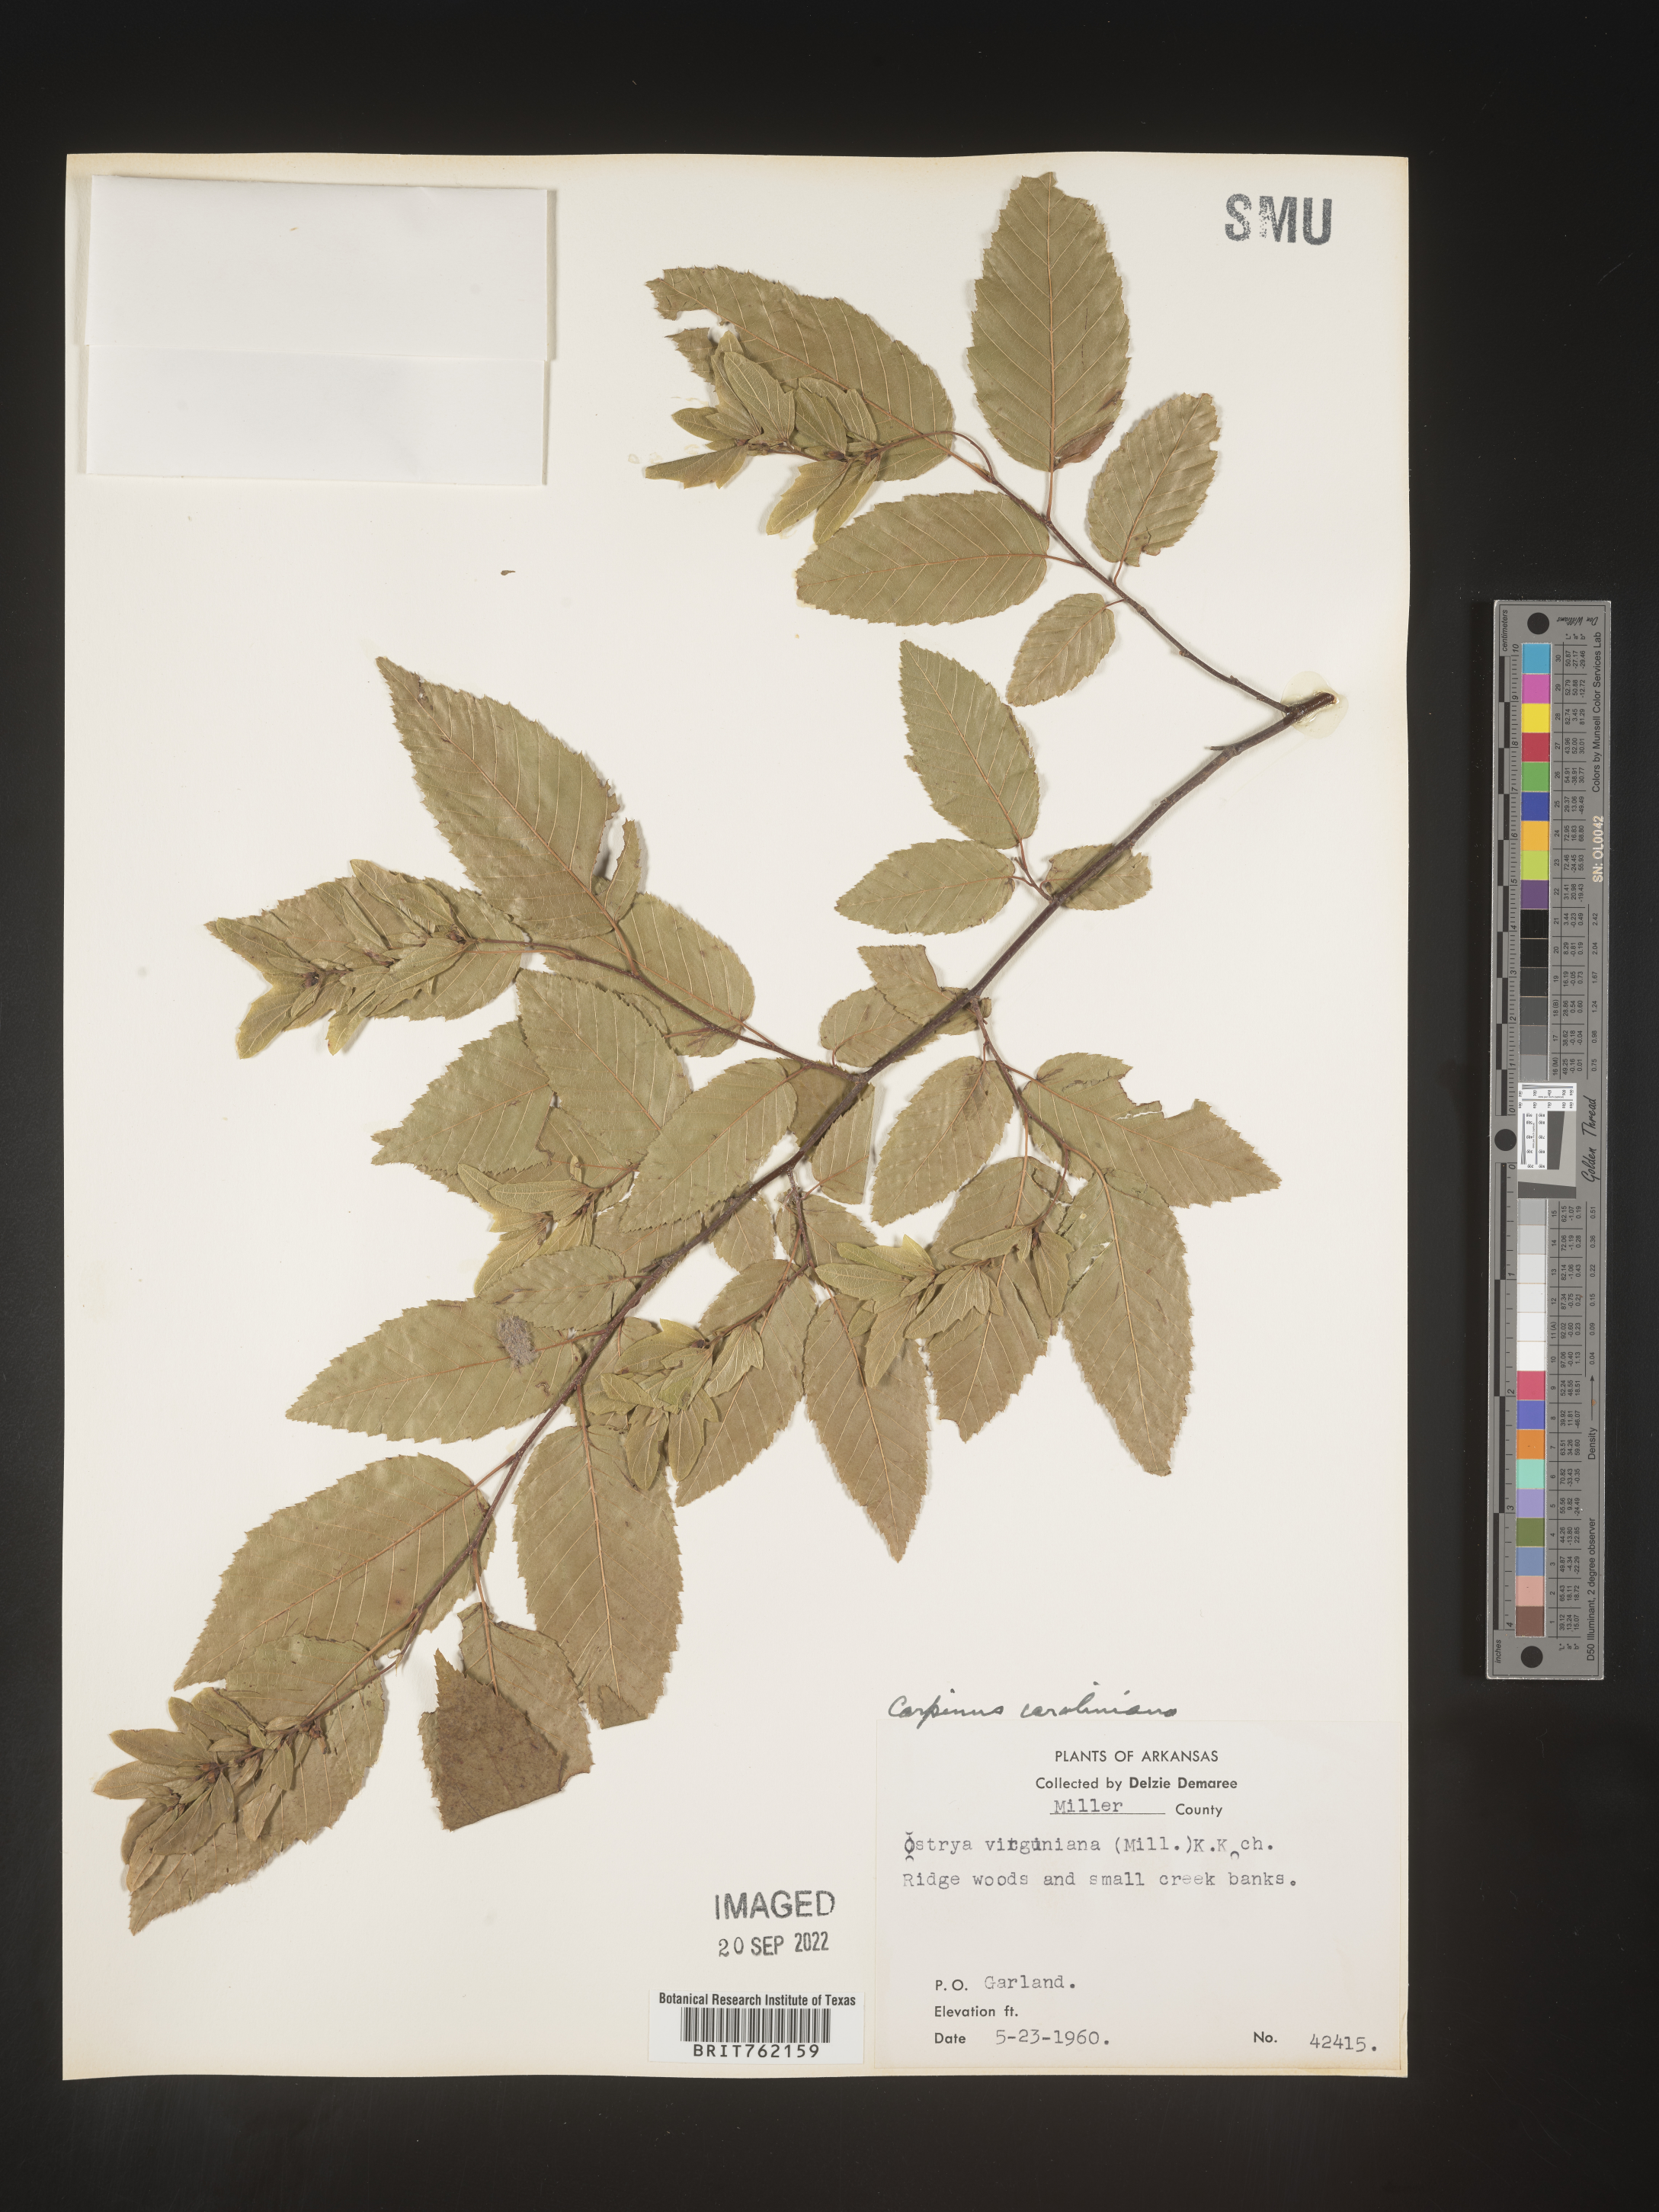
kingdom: Plantae
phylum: Tracheophyta
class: Magnoliopsida
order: Fagales
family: Betulaceae
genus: Carpinus
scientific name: Carpinus caroliniana
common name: American hornbeam
